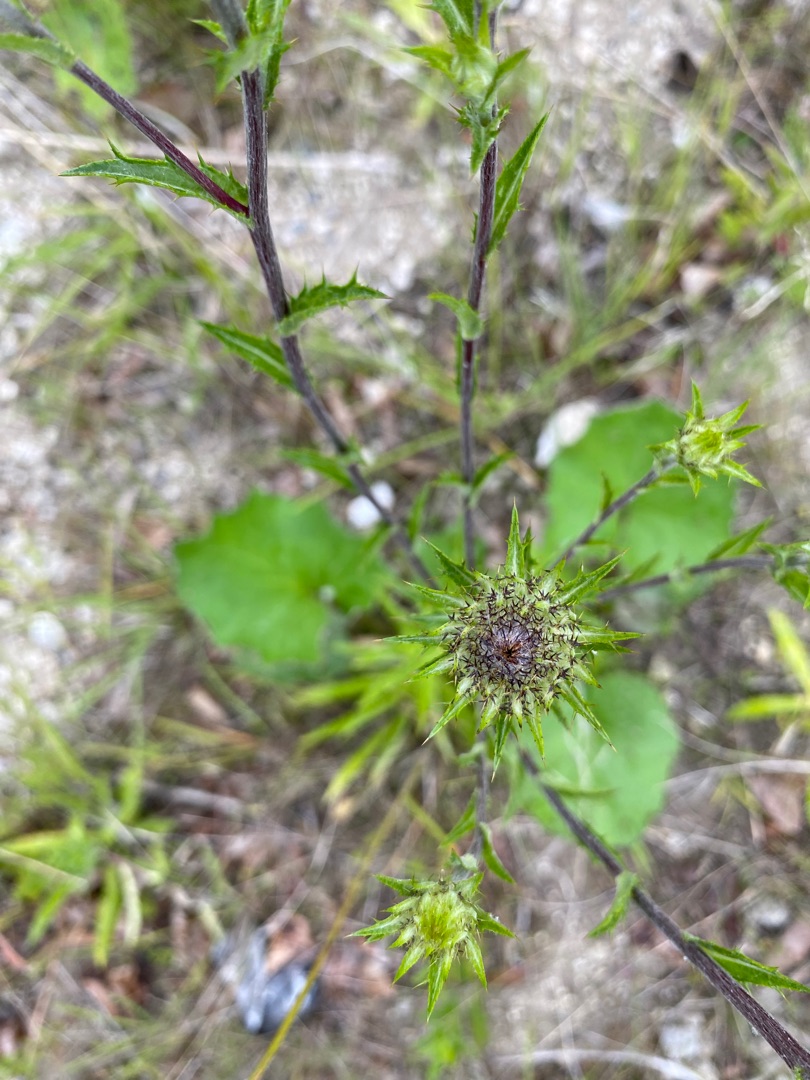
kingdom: Plantae
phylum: Tracheophyta
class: Magnoliopsida
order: Asterales
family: Asteraceae
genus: Carlina
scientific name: Carlina biebersteinii
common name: Langbladet bakketidsel
